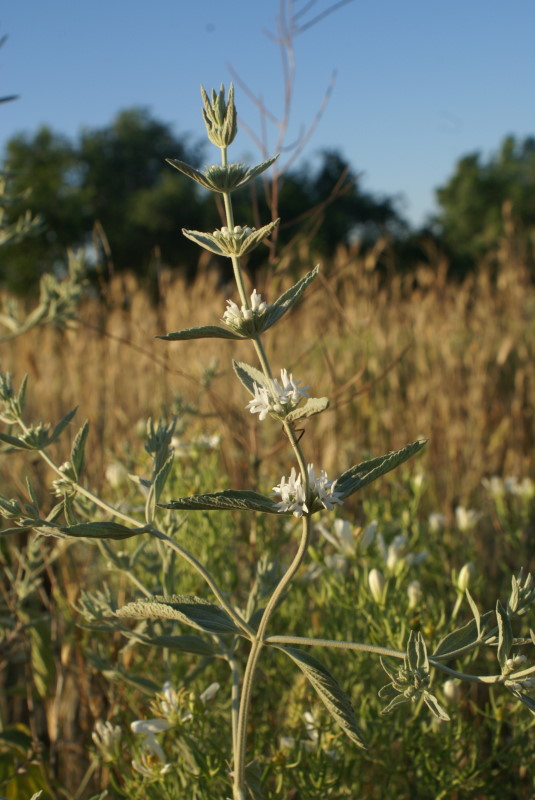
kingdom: Plantae
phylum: Tracheophyta
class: Magnoliopsida
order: Lamiales
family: Lamiaceae
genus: Marrubium
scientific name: Marrubium peregrinum
